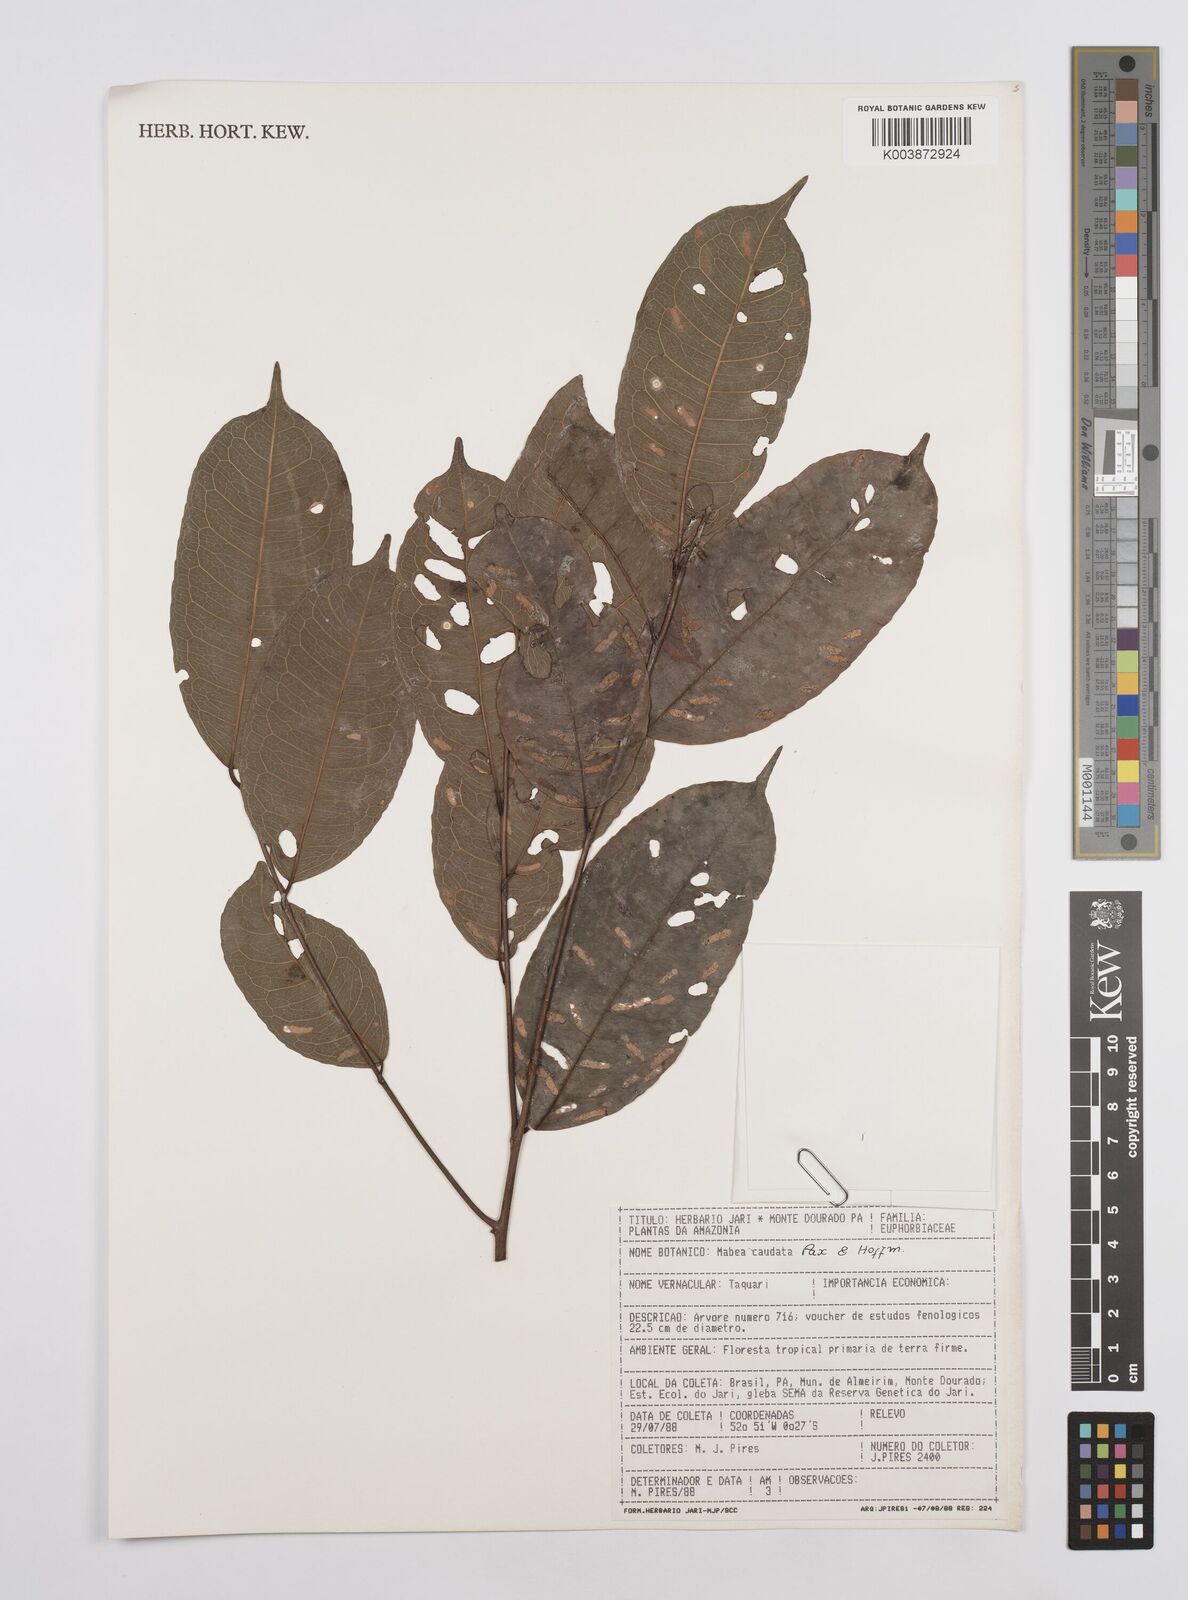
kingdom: Plantae
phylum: Tracheophyta
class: Magnoliopsida
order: Malpighiales
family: Euphorbiaceae
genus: Mabea
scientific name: Mabea caudata
